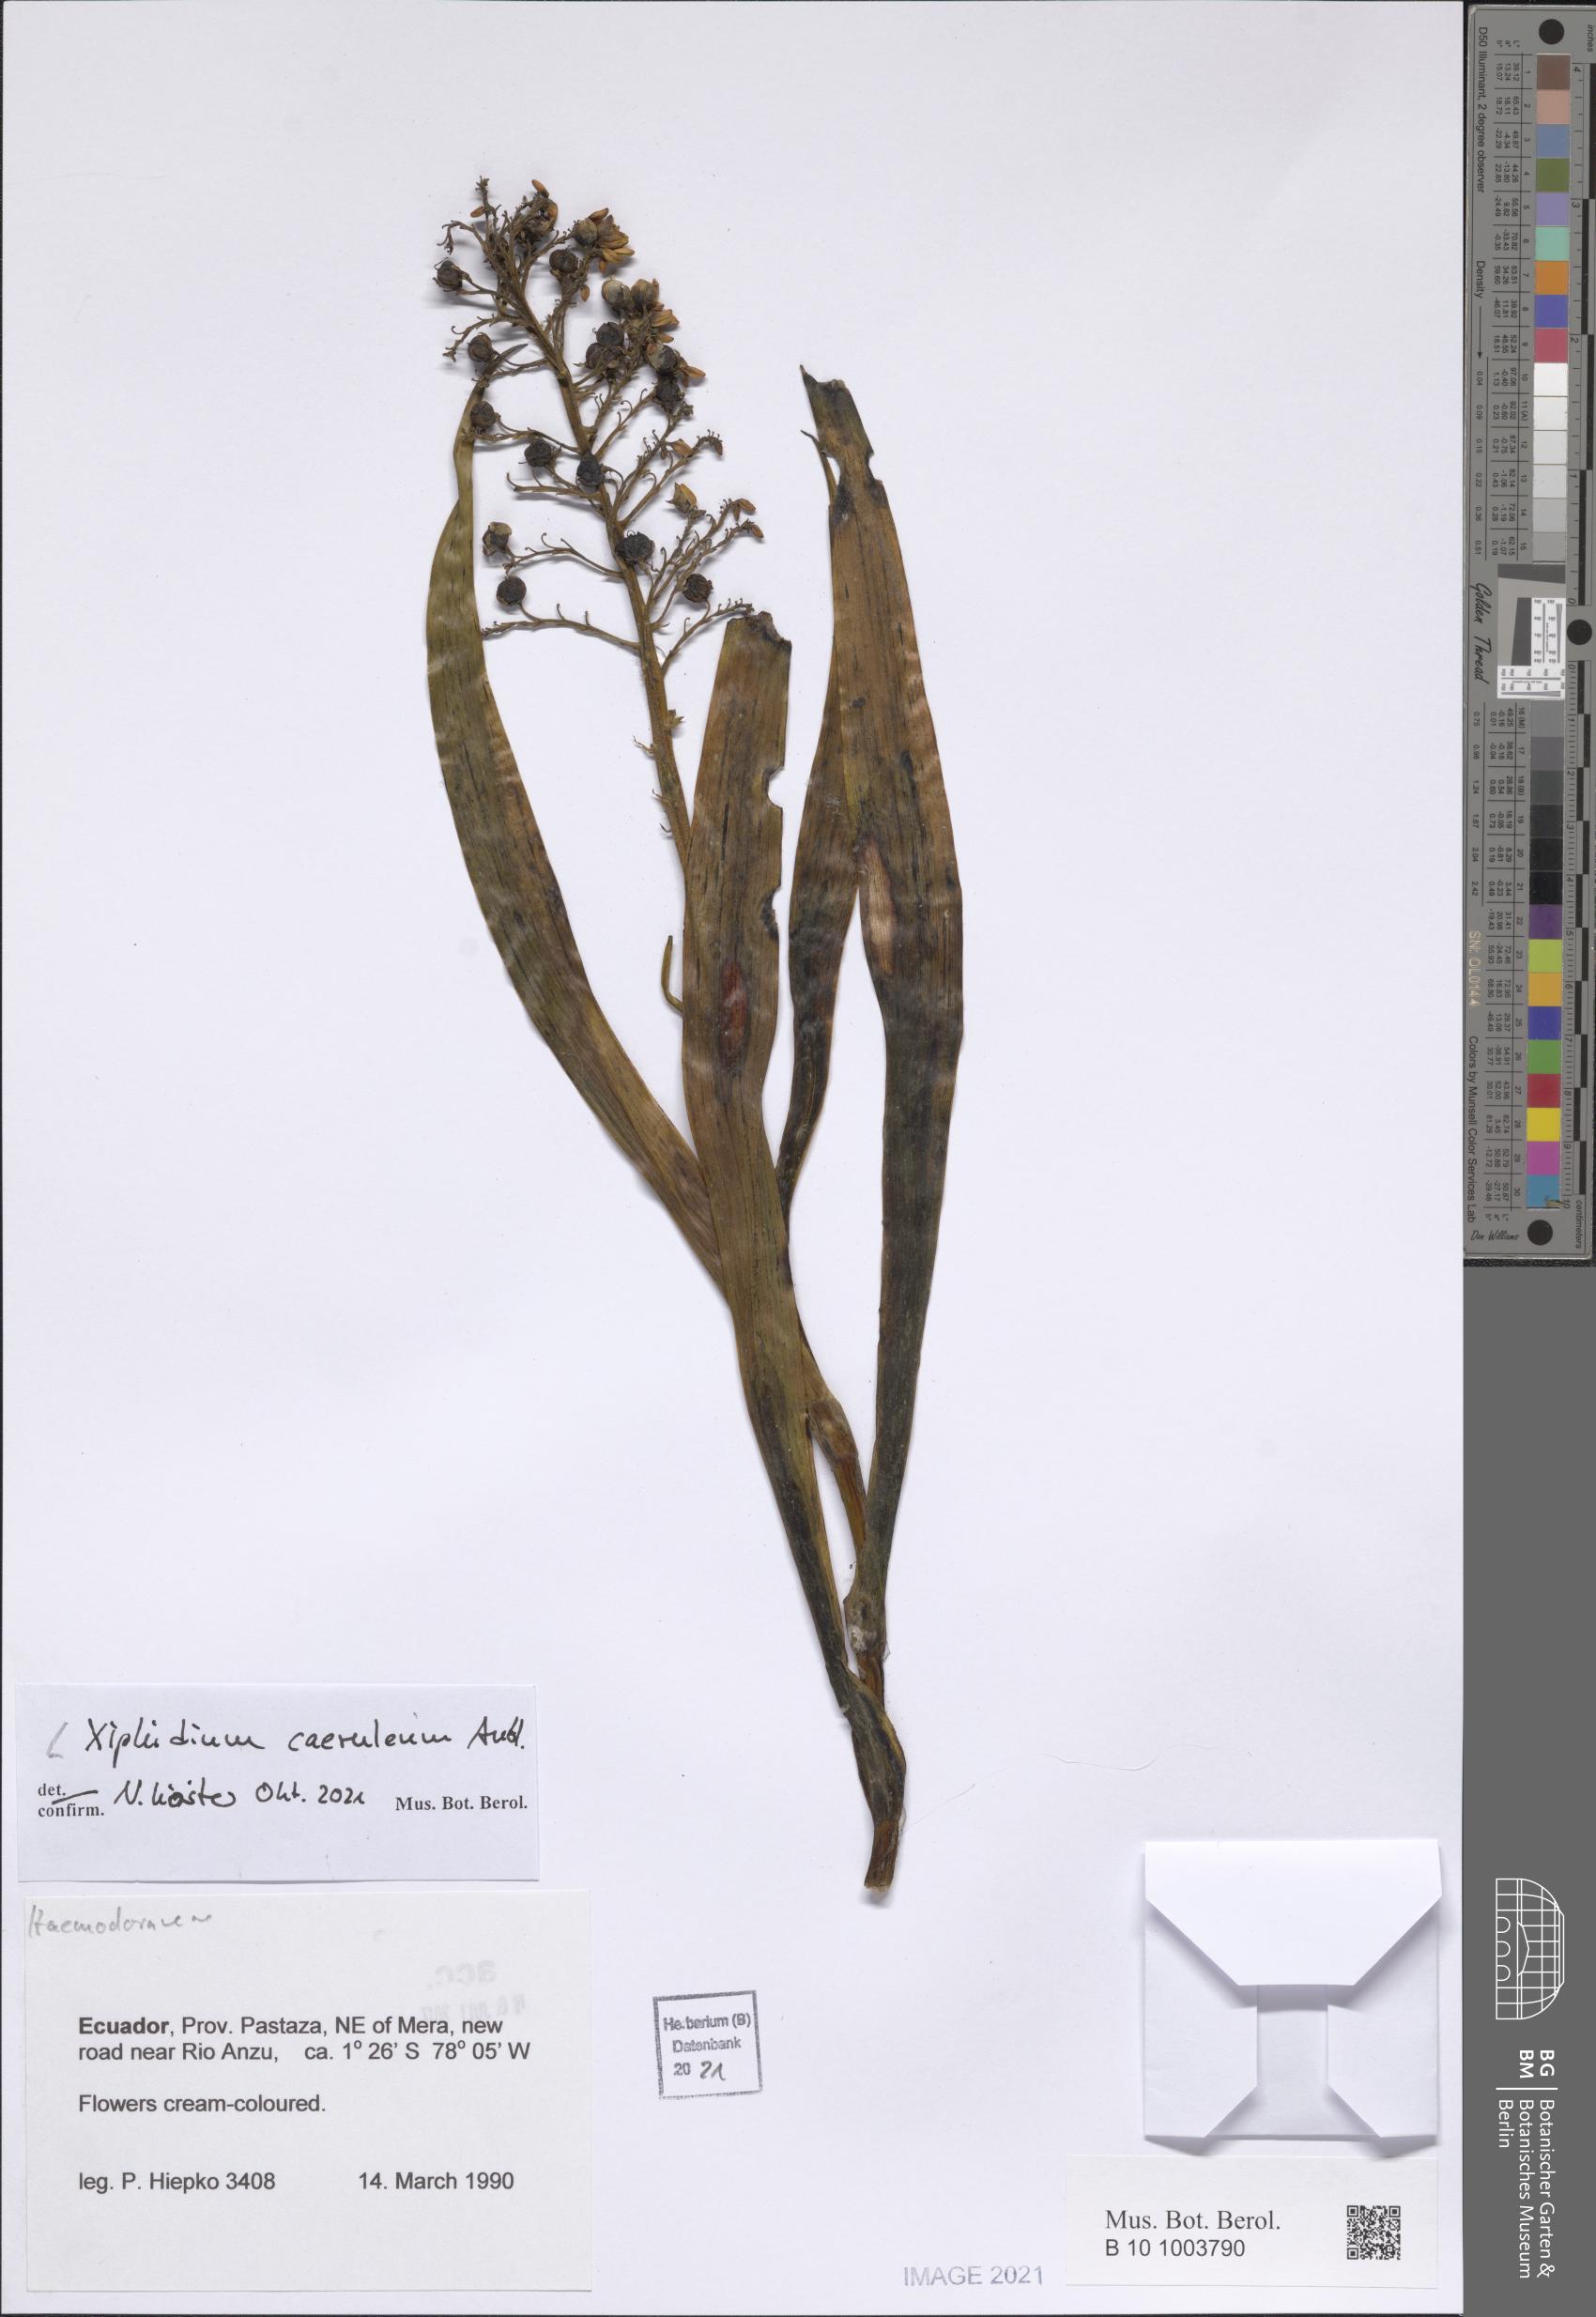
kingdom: Plantae
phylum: Tracheophyta
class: Liliopsida
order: Commelinales
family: Haemodoraceae
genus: Xiphidium
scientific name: Xiphidium caeruleum
